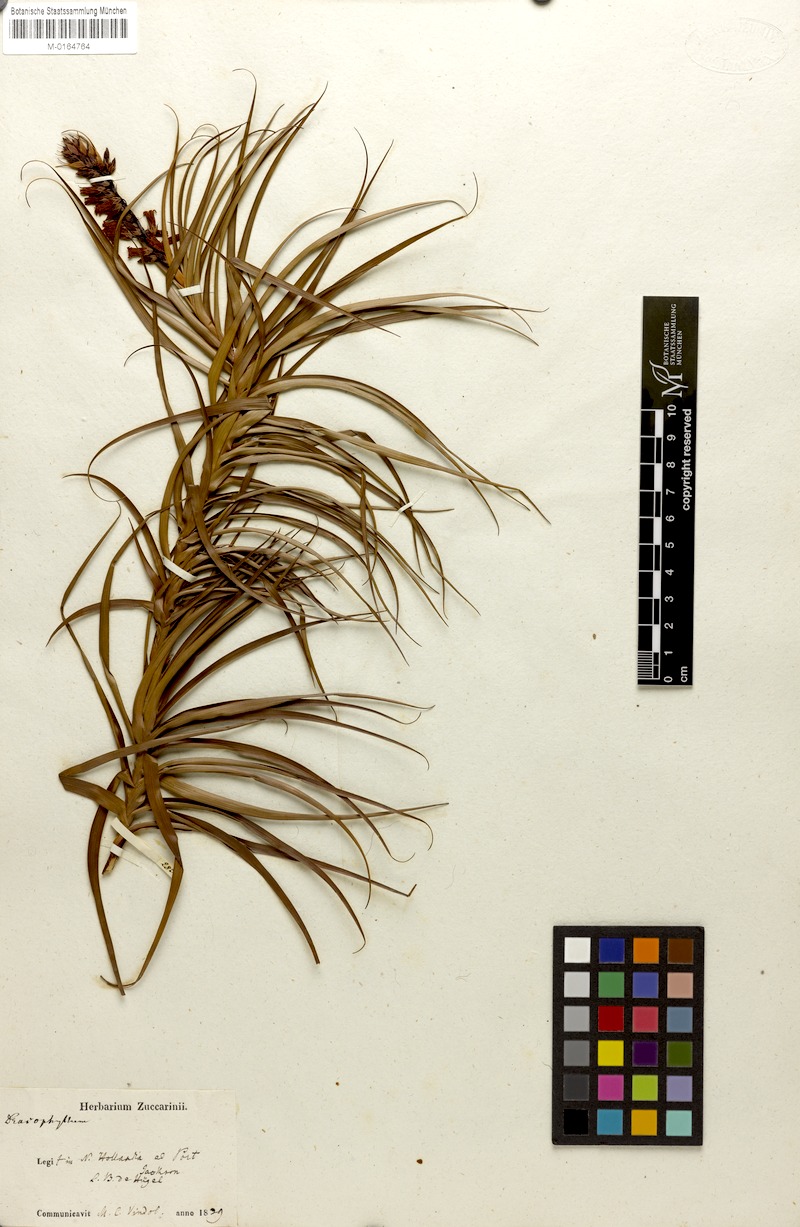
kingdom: Plantae
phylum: Tracheophyta
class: Magnoliopsida
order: Ericales
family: Ericaceae
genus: Dracophyllum
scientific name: Dracophyllum
